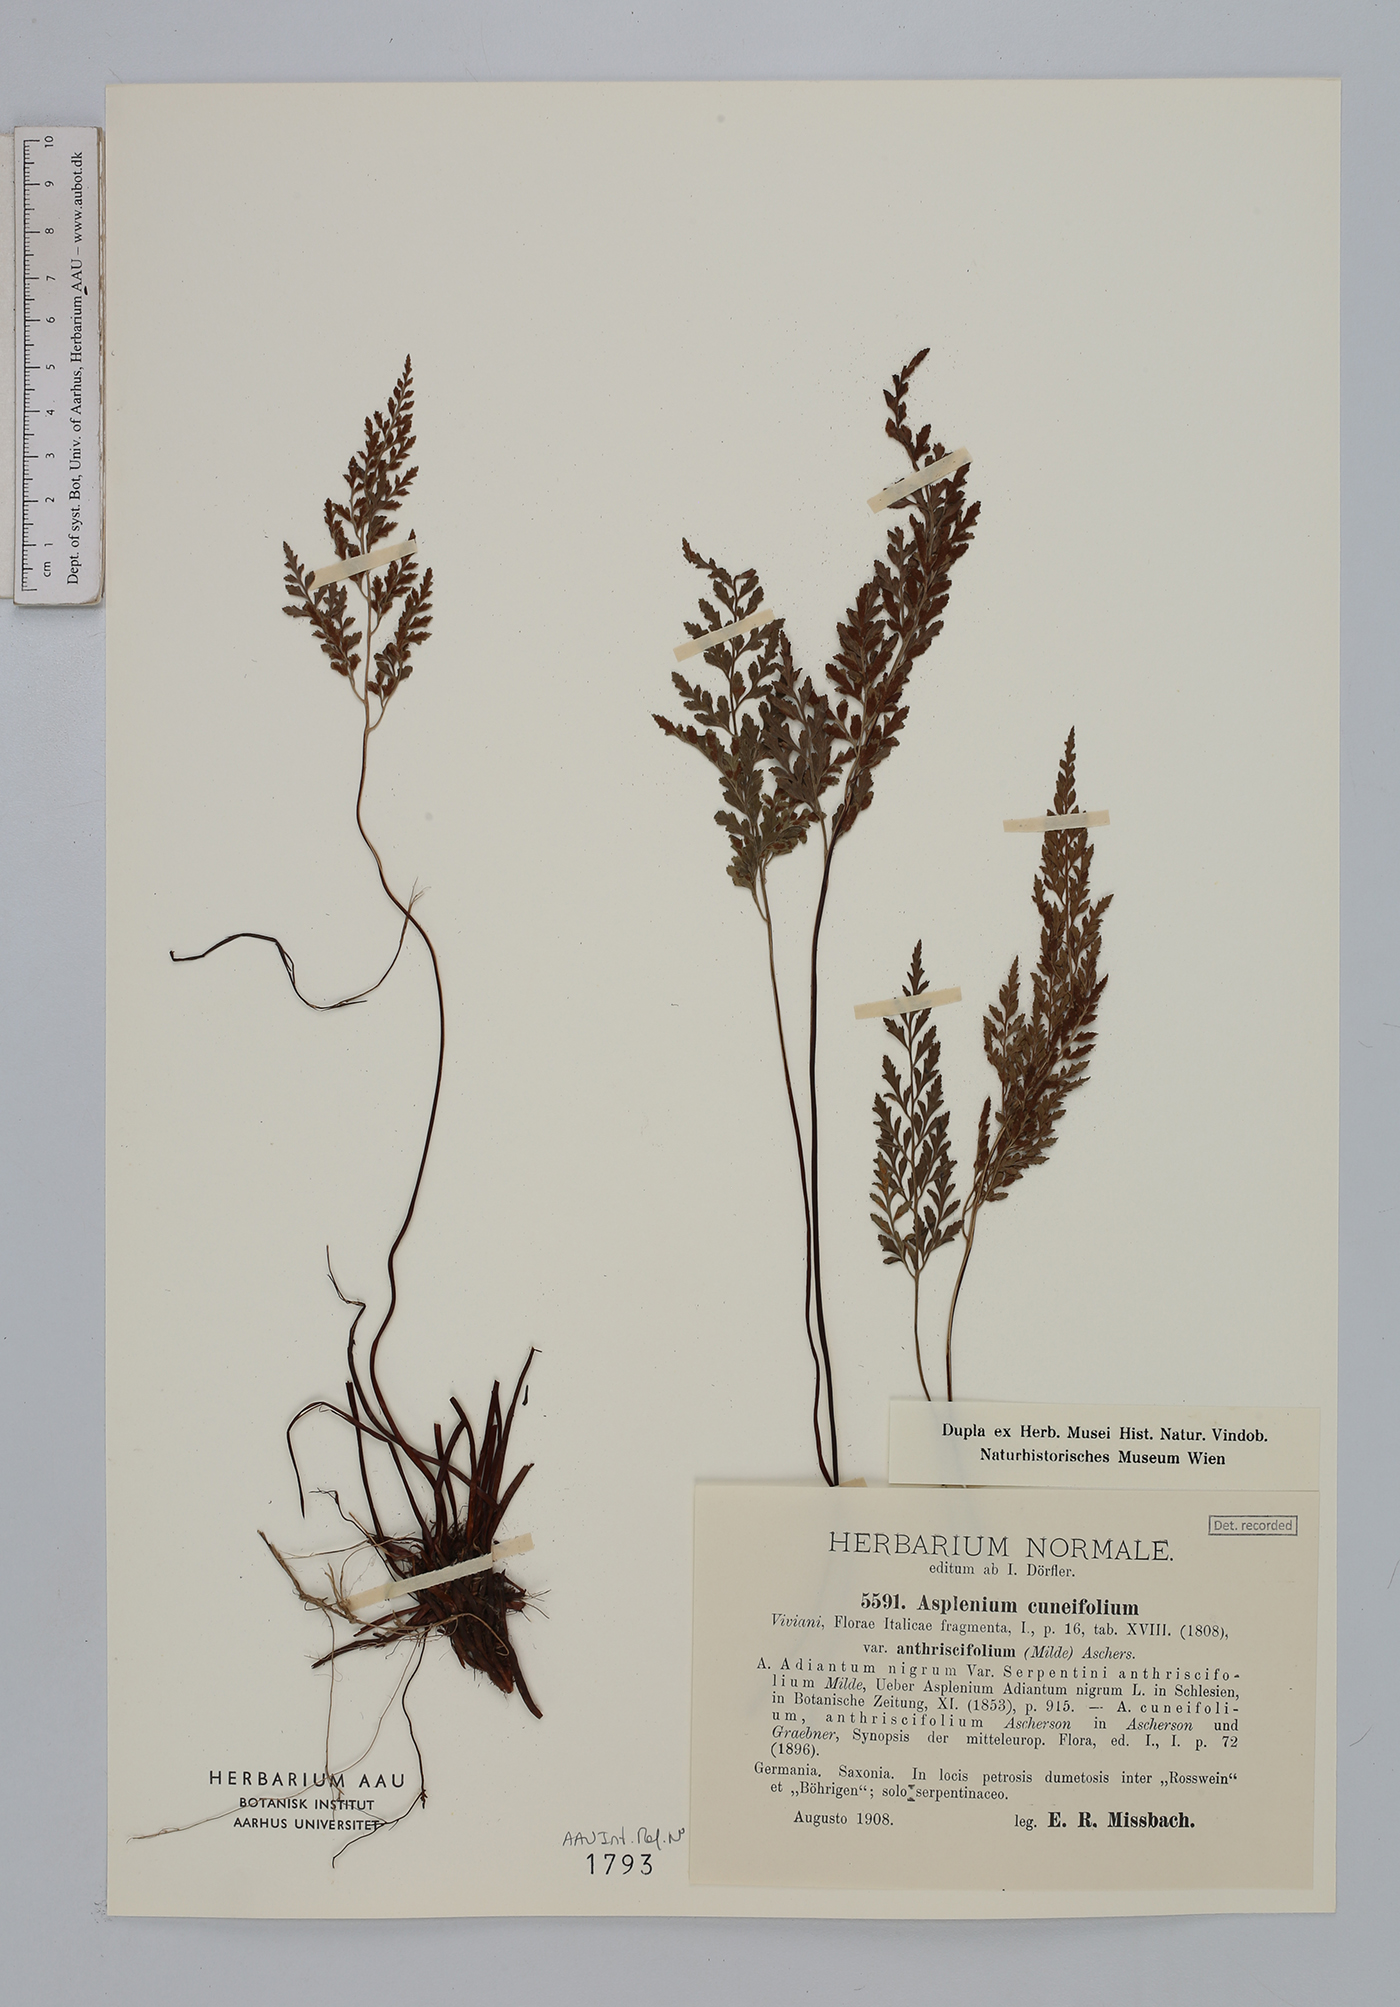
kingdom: Plantae
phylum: Tracheophyta
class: Polypodiopsida
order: Polypodiales
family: Aspleniaceae
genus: Asplenium
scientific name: Asplenium cuneifolium
